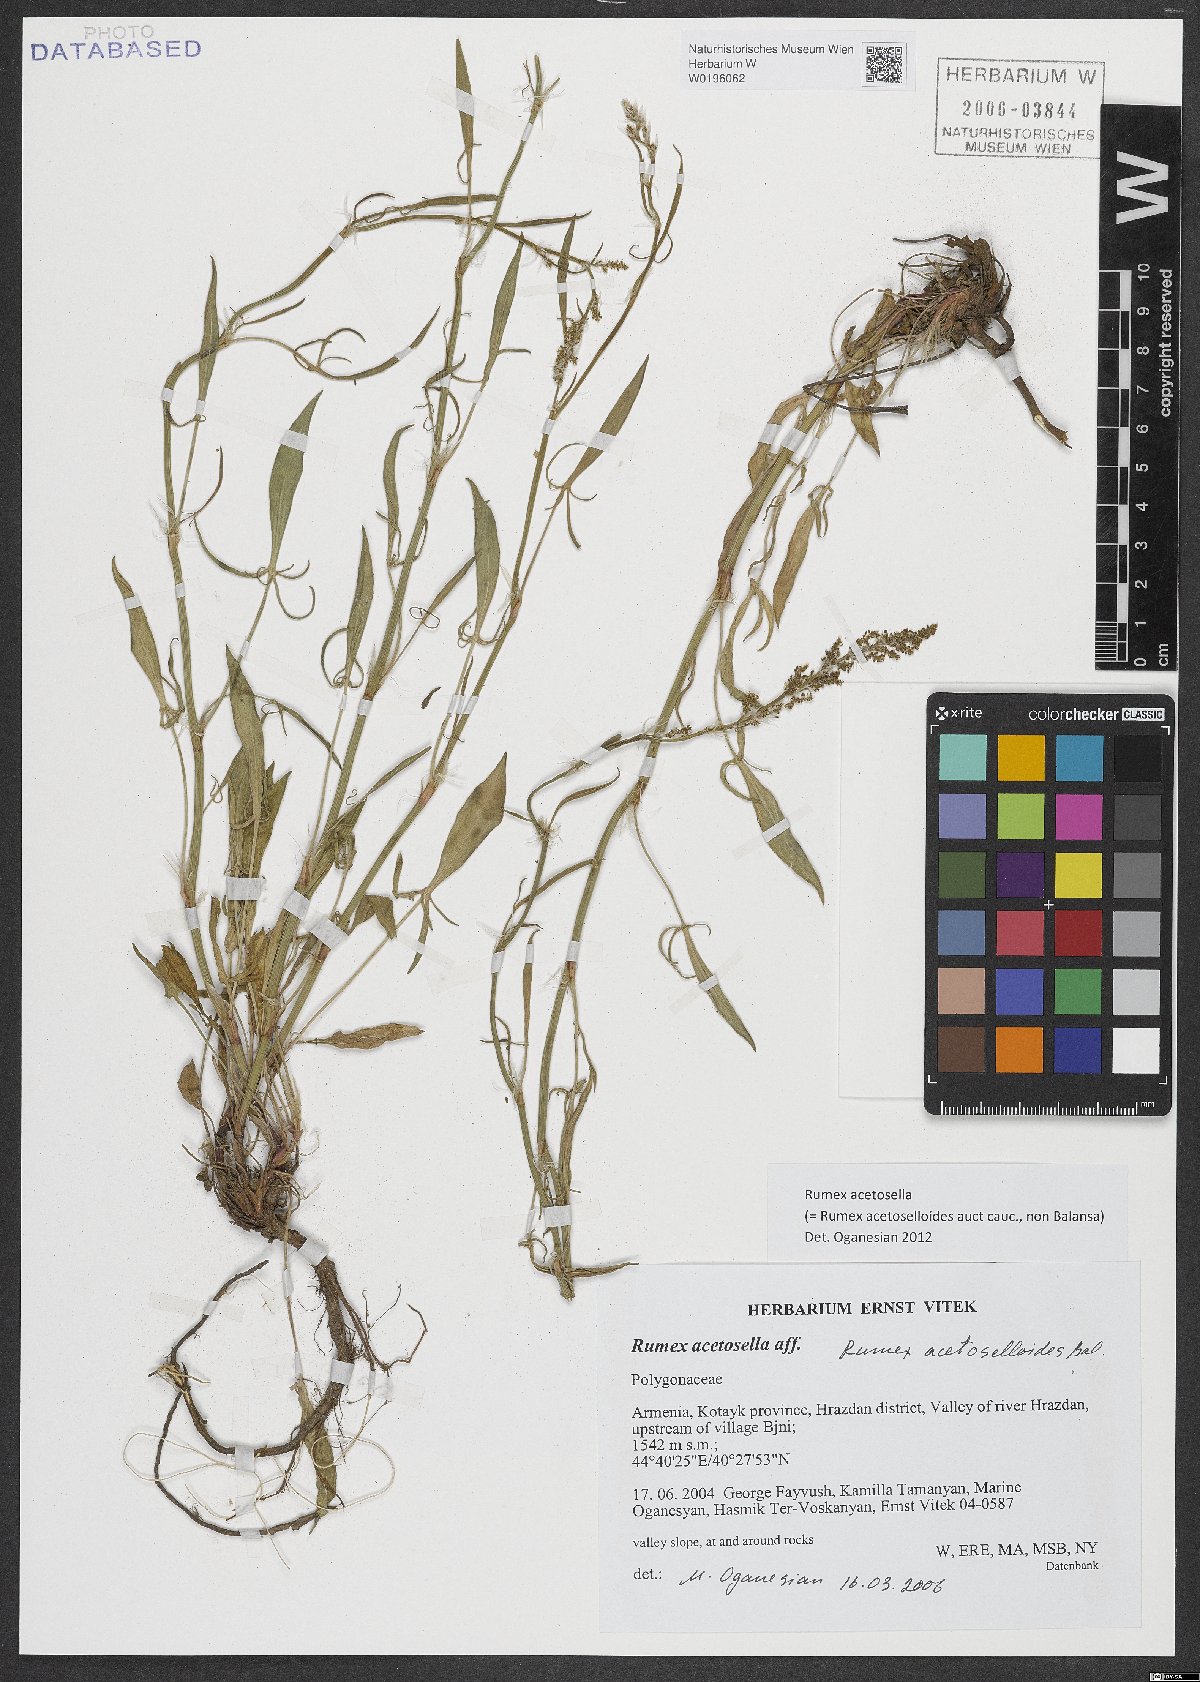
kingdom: Plantae
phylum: Tracheophyta
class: Magnoliopsida
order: Caryophyllales
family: Polygonaceae
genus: Rumex
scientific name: Rumex acetosella
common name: Common sheep sorrel
